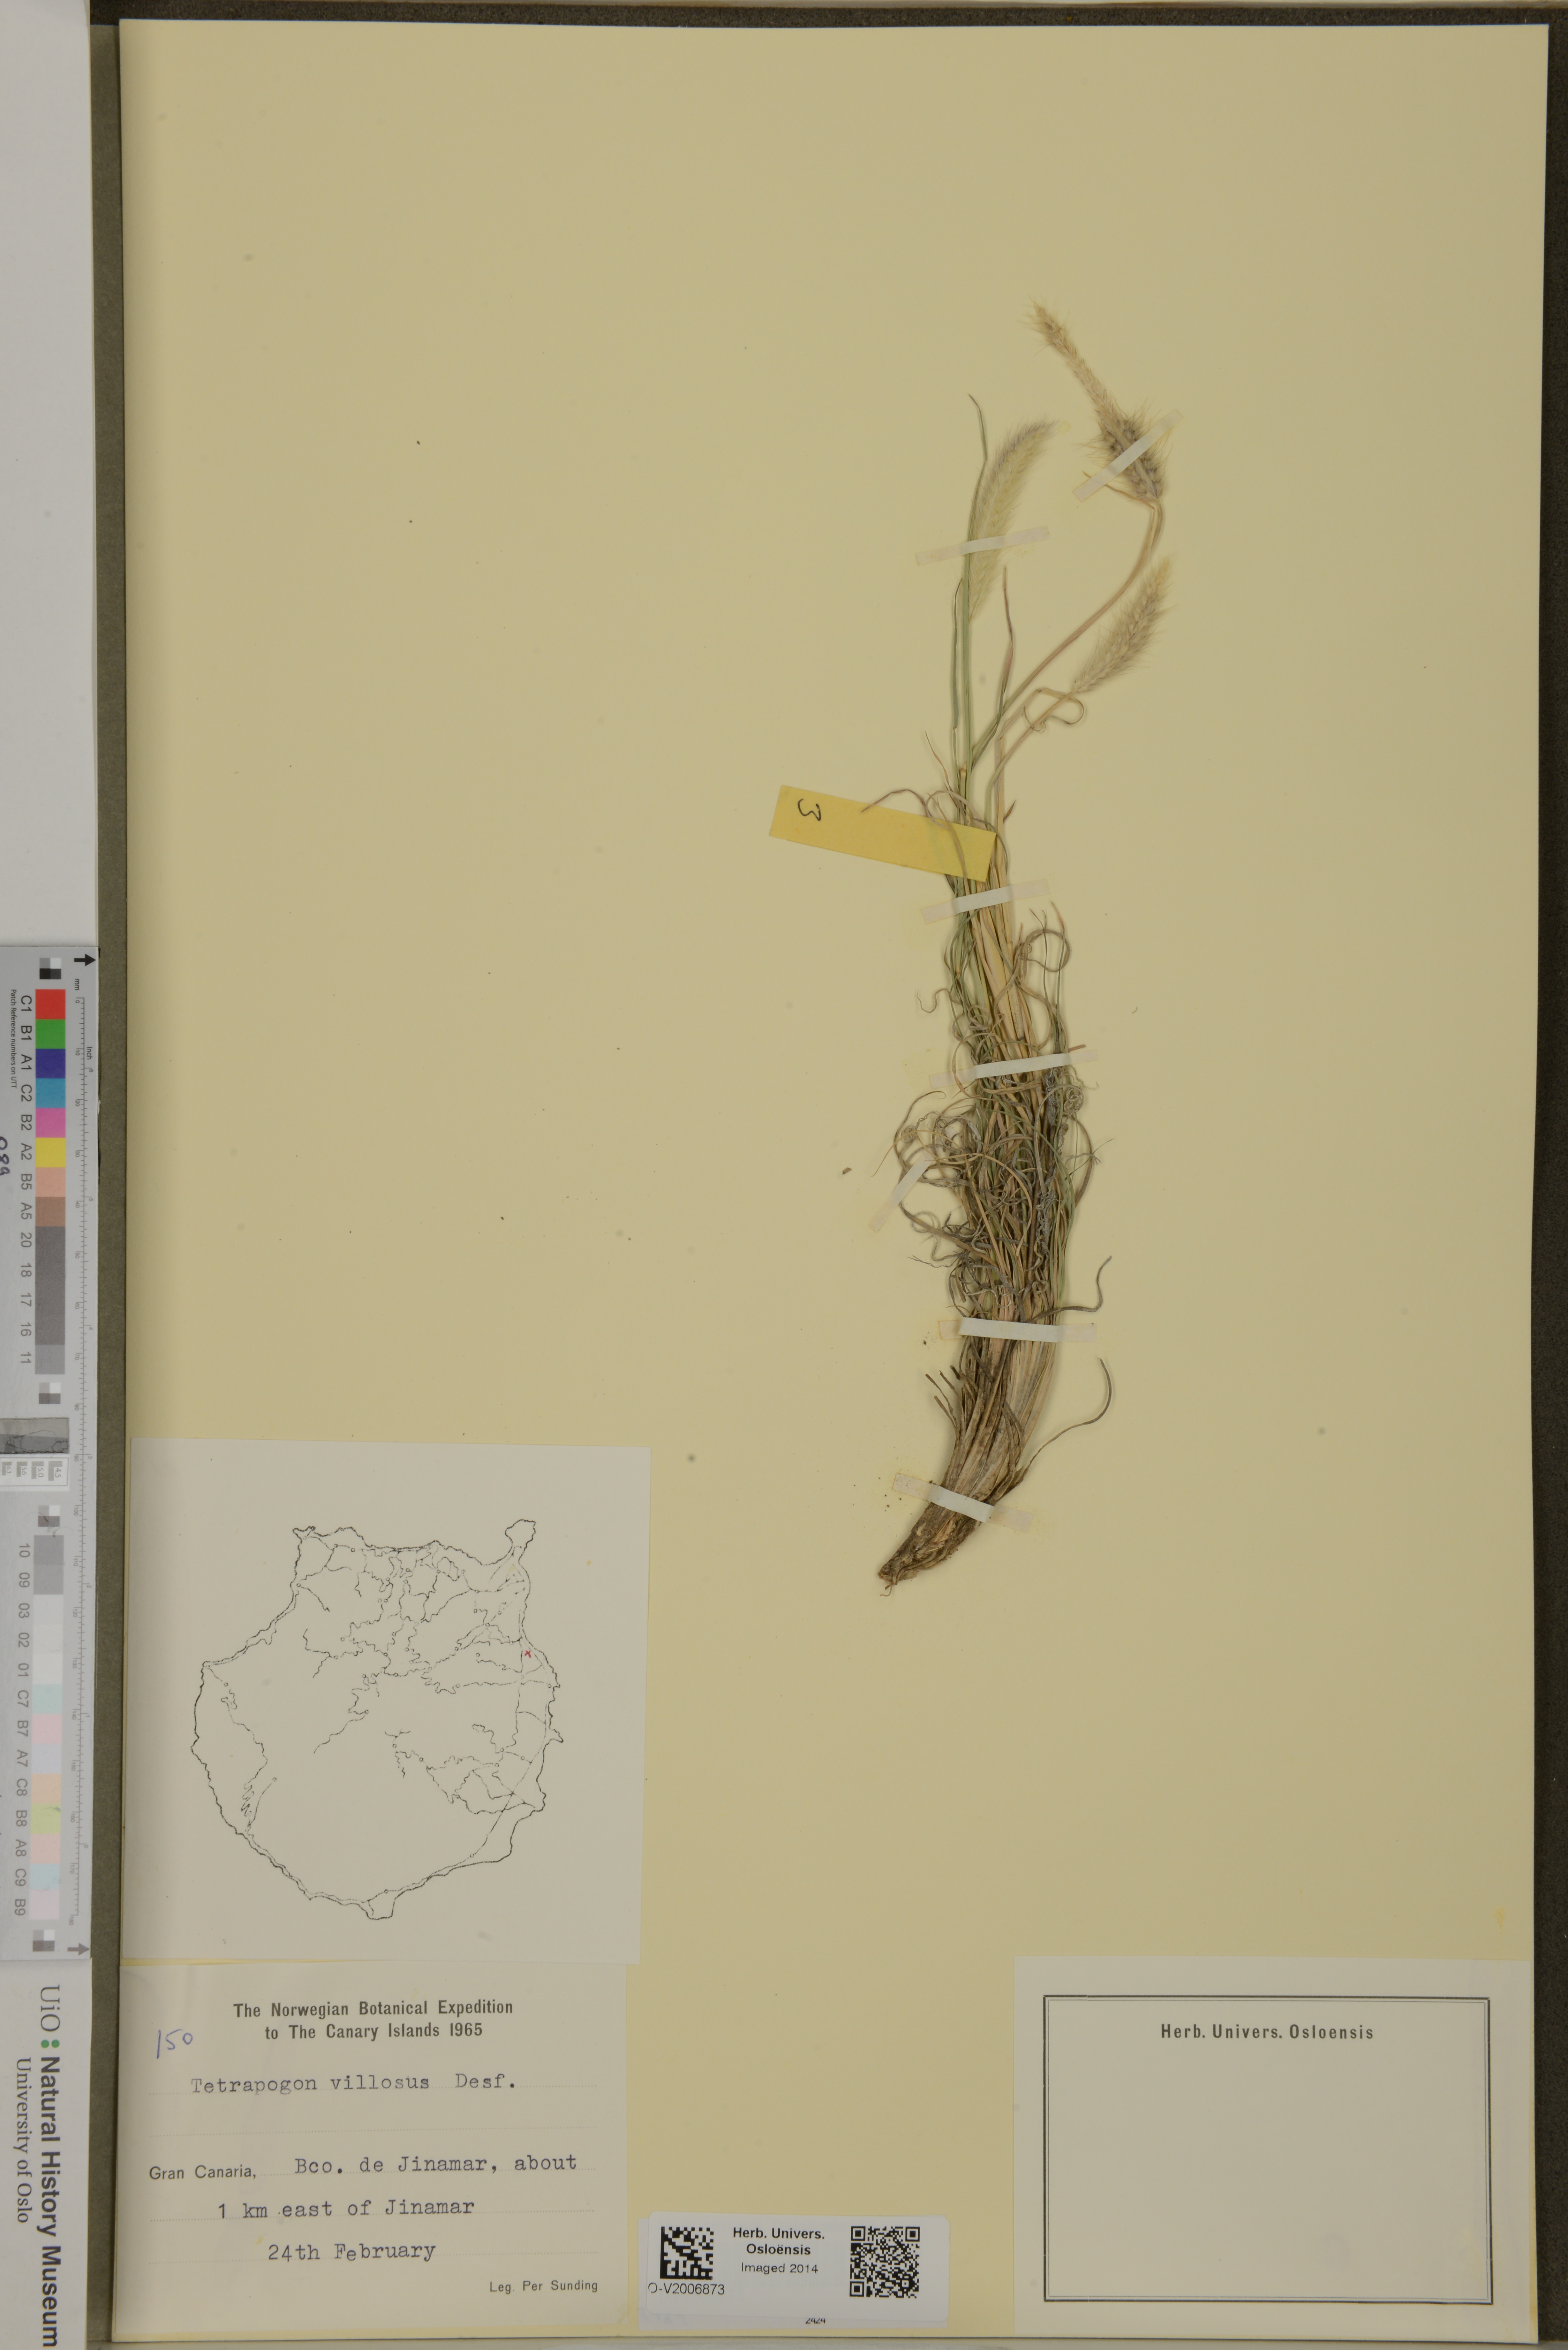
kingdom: Plantae
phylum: Tracheophyta
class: Liliopsida
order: Poales
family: Poaceae
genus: Tetrapogon
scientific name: Tetrapogon villosus
